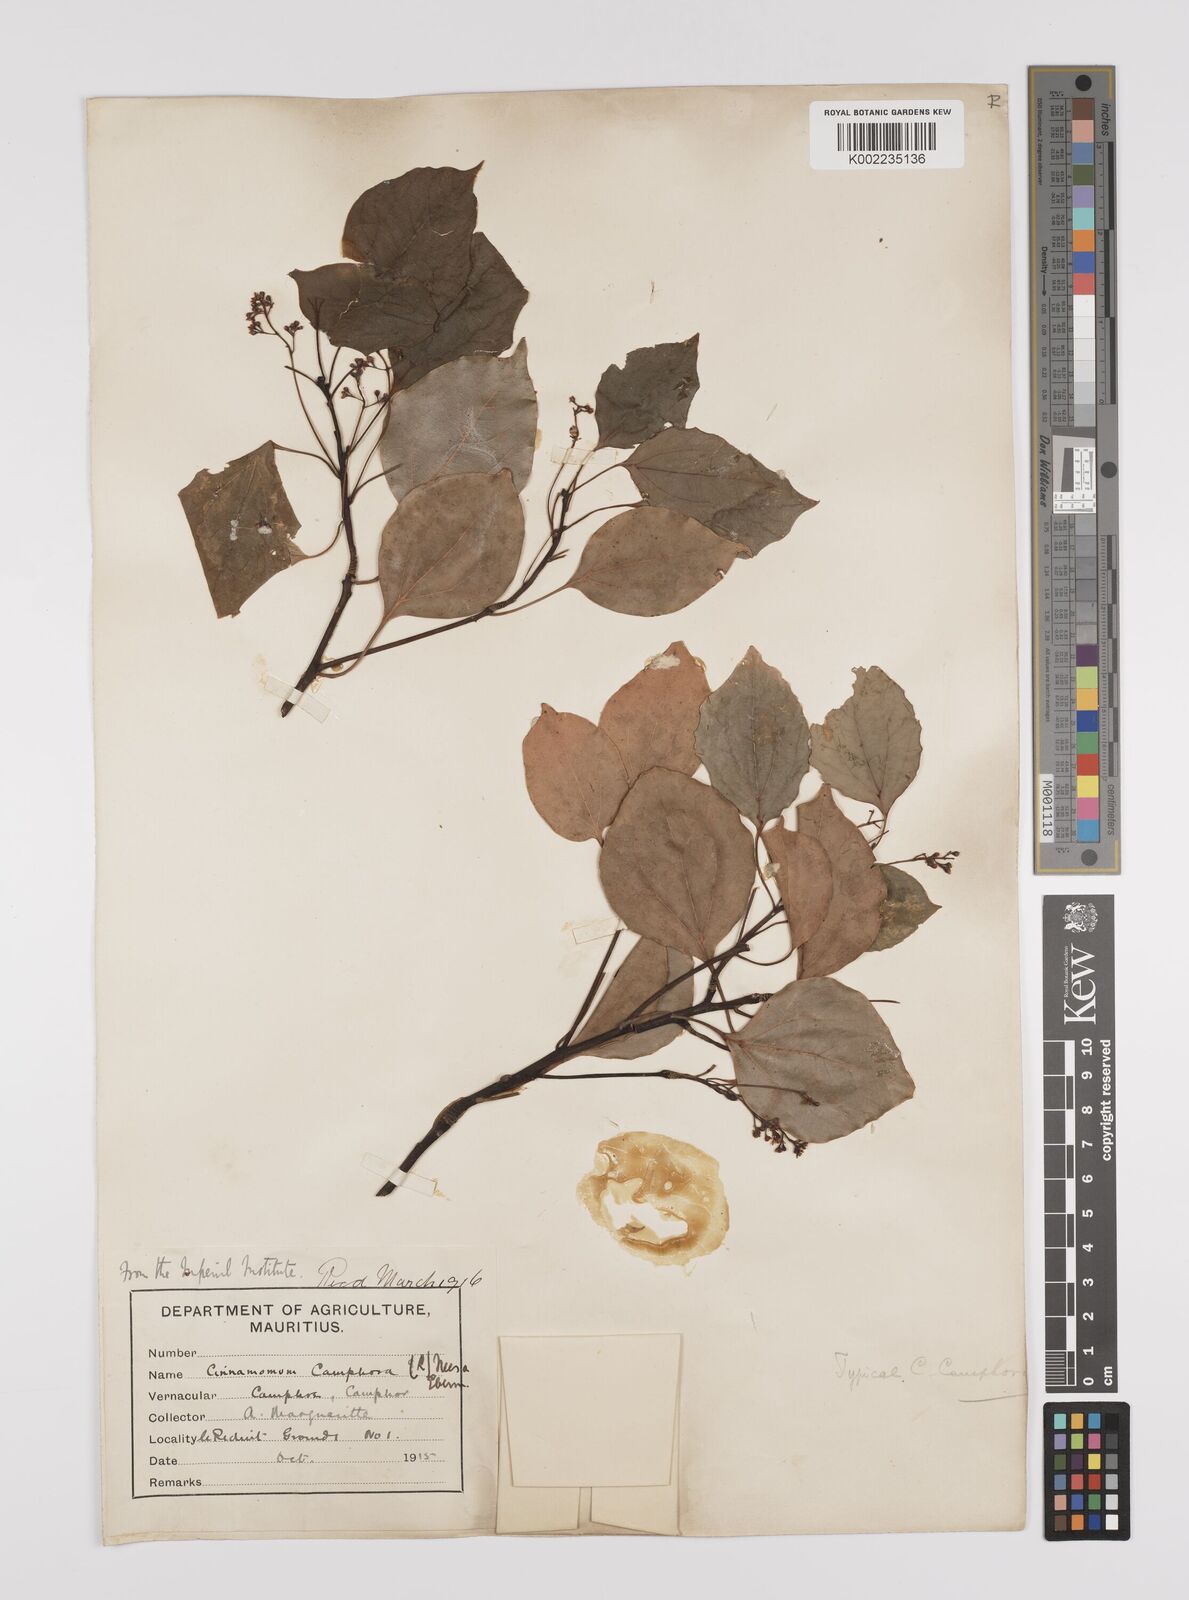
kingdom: Plantae
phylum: Tracheophyta
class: Magnoliopsida
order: Laurales
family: Lauraceae
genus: Cinnamomum
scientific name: Cinnamomum camphora
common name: Camphortree
